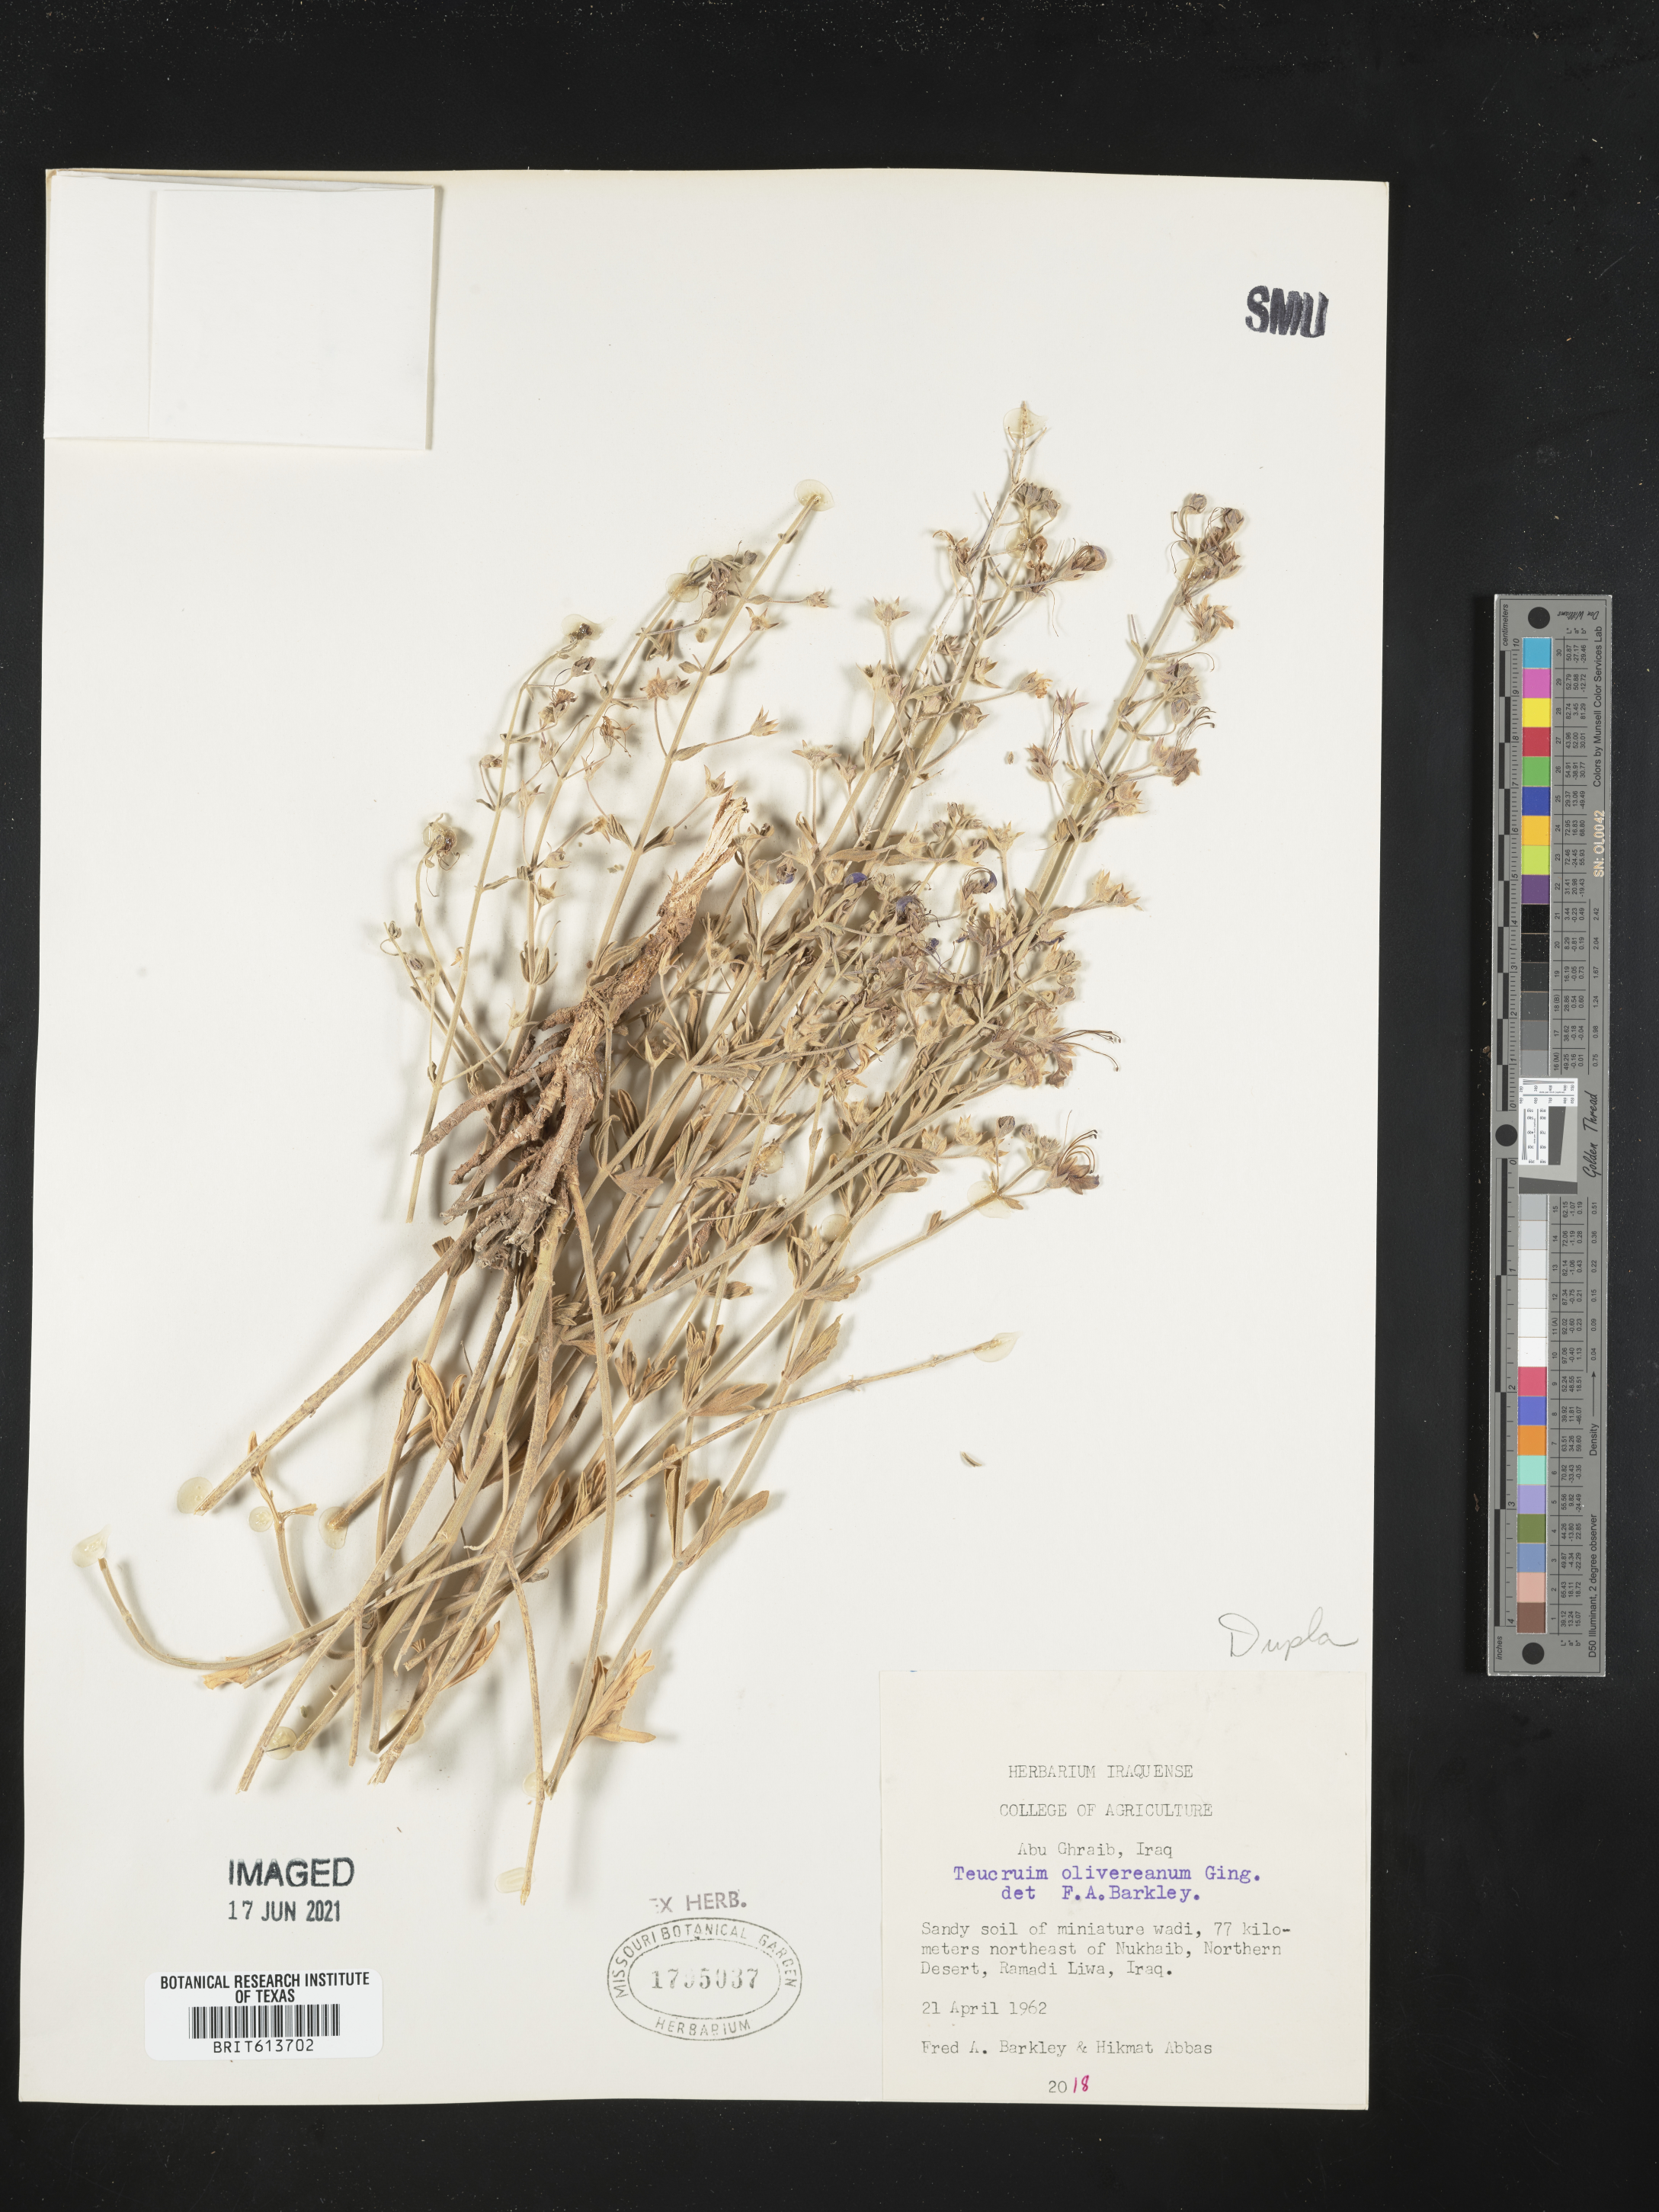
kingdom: Plantae
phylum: Tracheophyta
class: Magnoliopsida
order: Lamiales
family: Lamiaceae
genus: Teucrium
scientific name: Teucrium oliverianum
